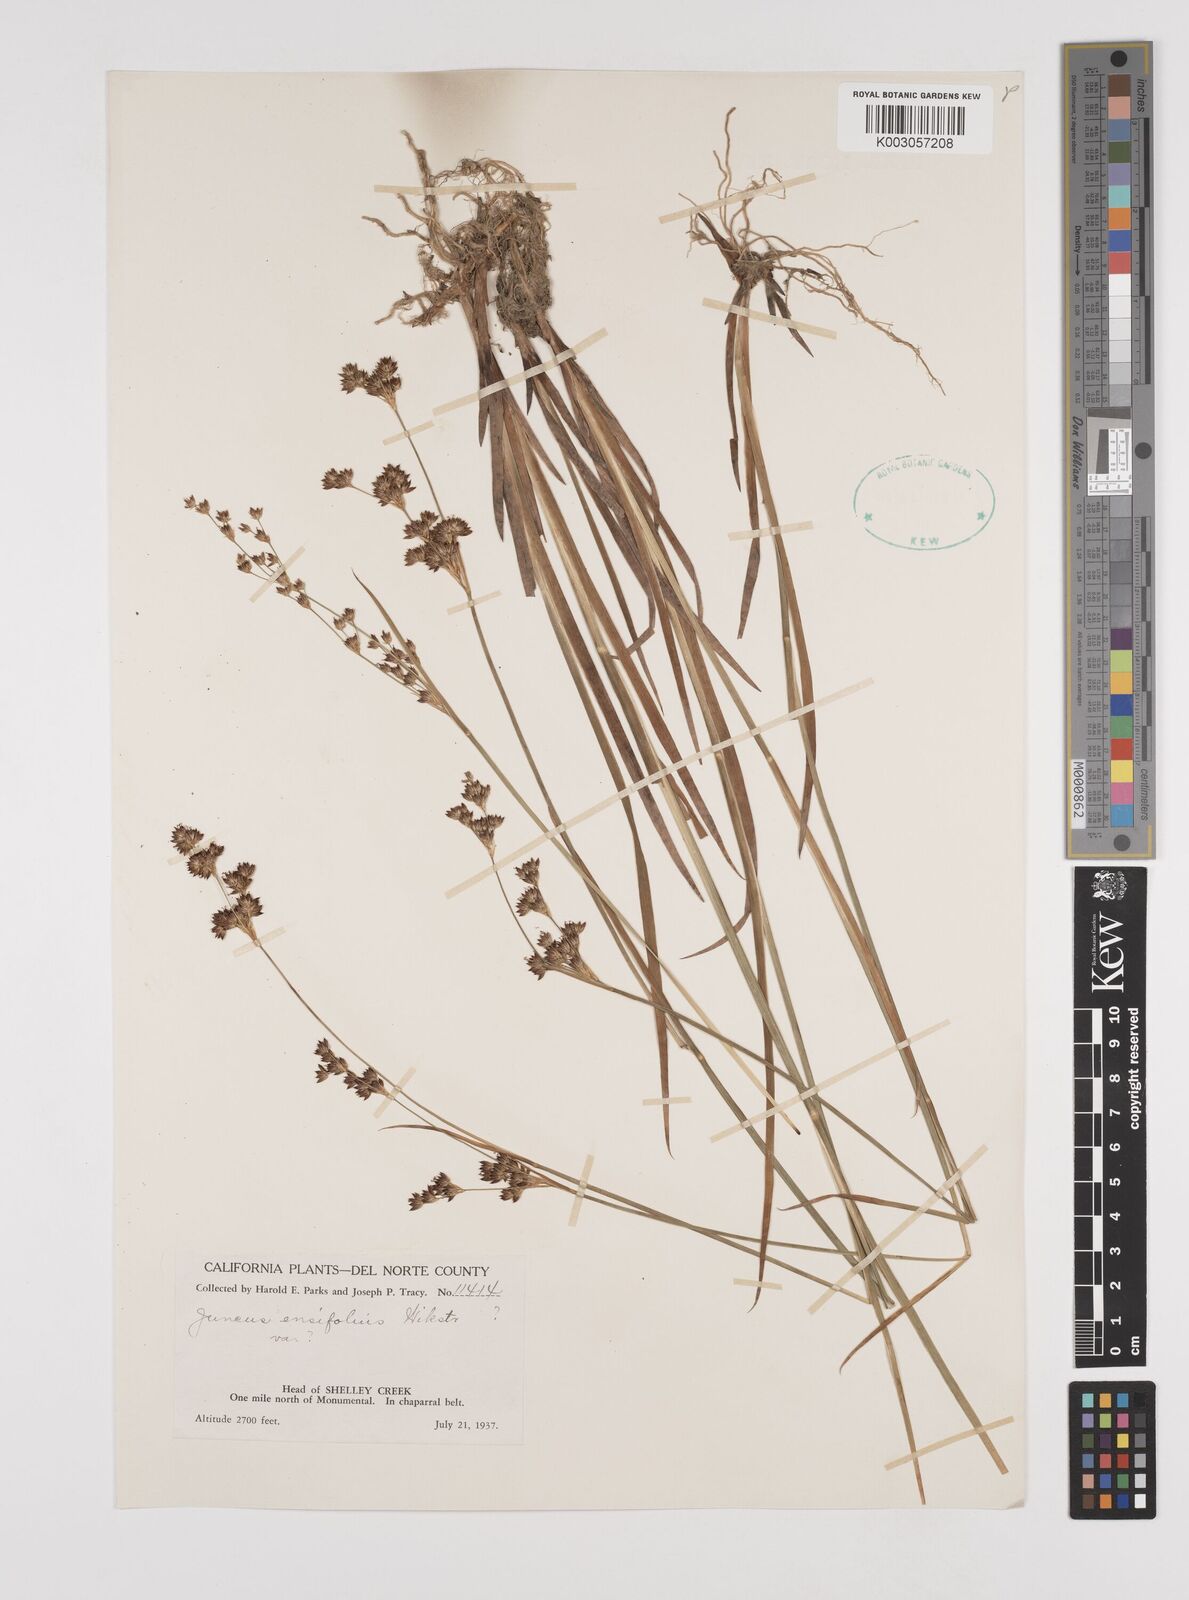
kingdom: Plantae
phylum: Tracheophyta
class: Liliopsida
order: Poales
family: Juncaceae
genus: Juncus
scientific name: Juncus ensifolius
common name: Sword-leaved rush
